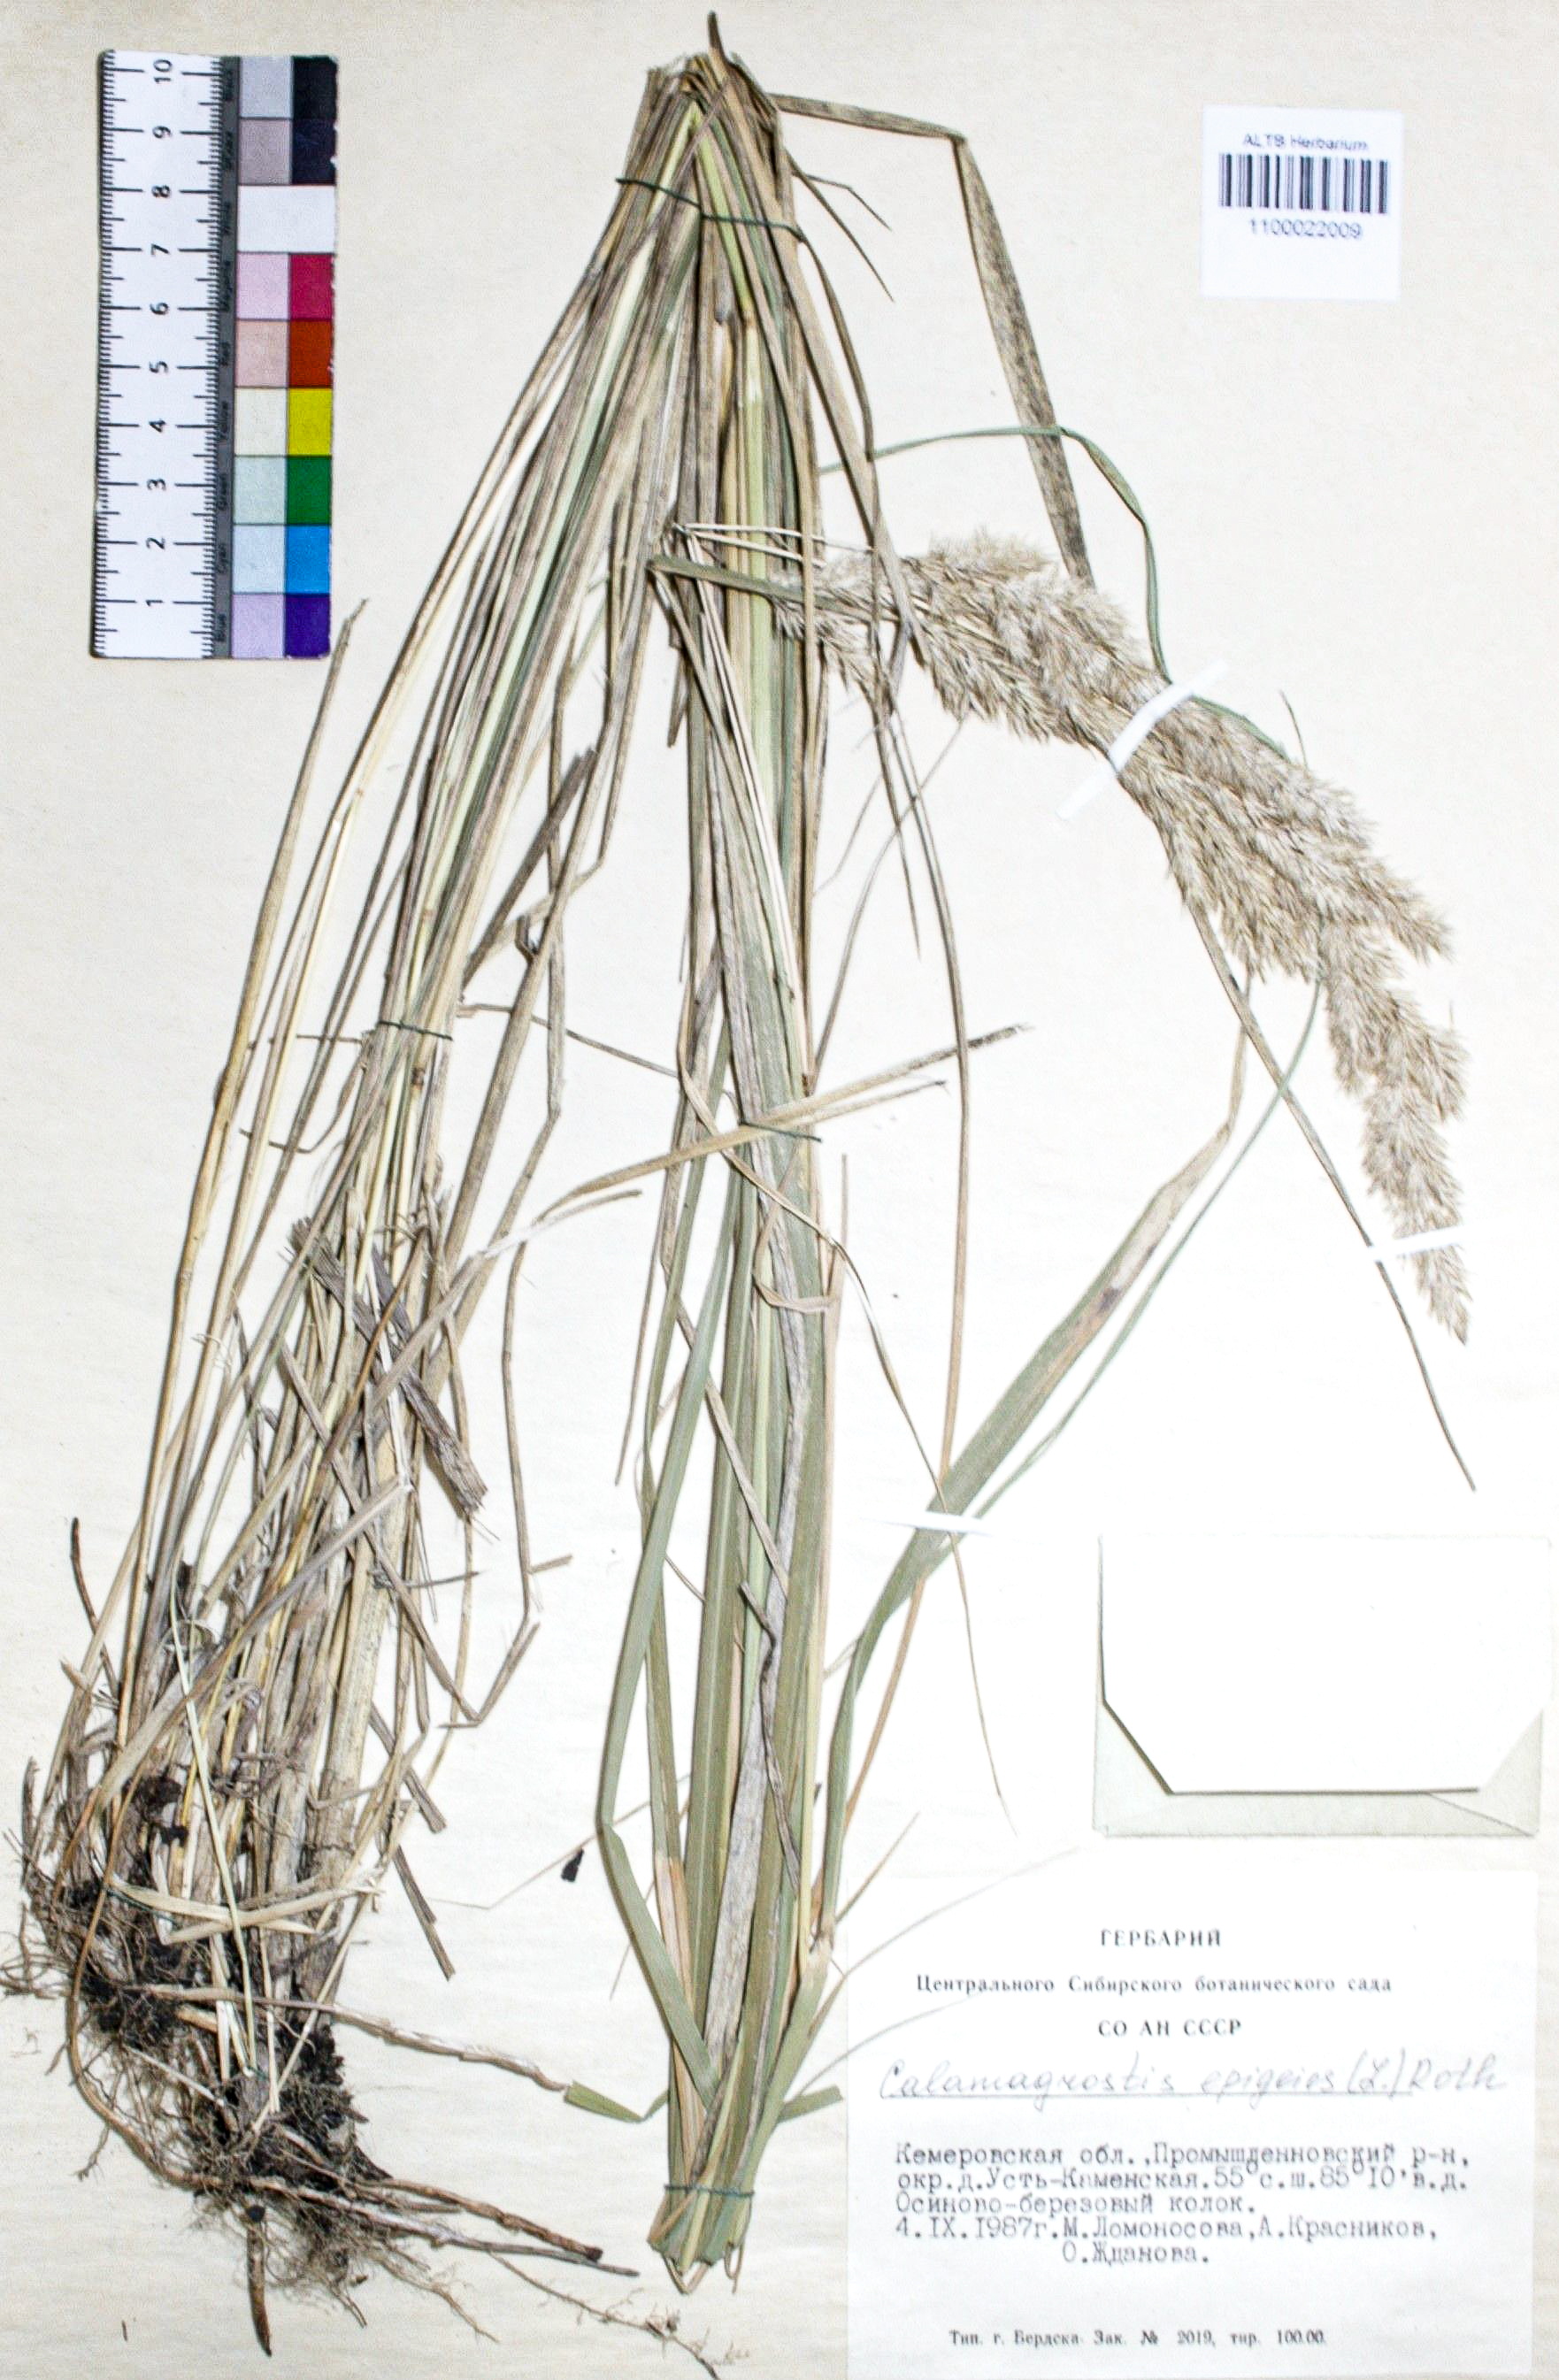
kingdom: Plantae
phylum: Tracheophyta
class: Liliopsida
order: Poales
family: Poaceae
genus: Calamagrostis
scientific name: Calamagrostis epigejos
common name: Wood small-reed
